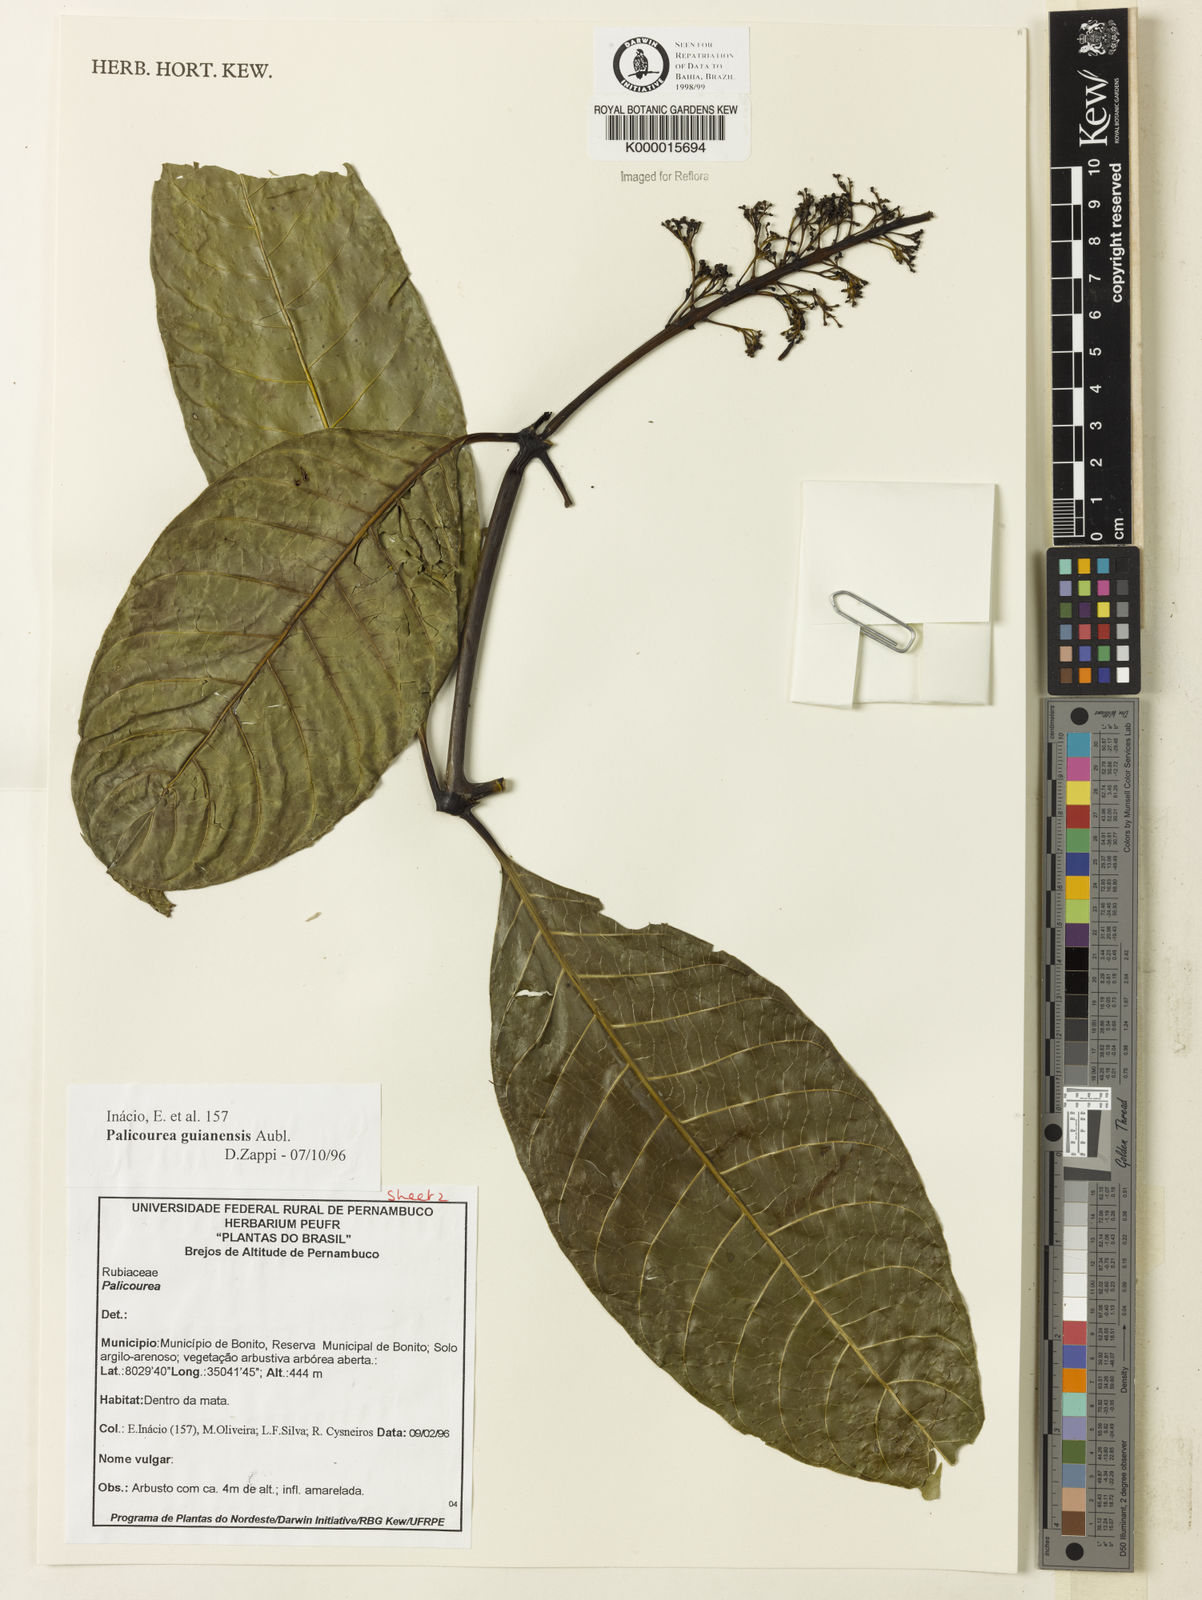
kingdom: Plantae
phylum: Tracheophyta
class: Magnoliopsida
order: Gentianales
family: Rubiaceae
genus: Palicourea
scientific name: Palicourea guianensis
